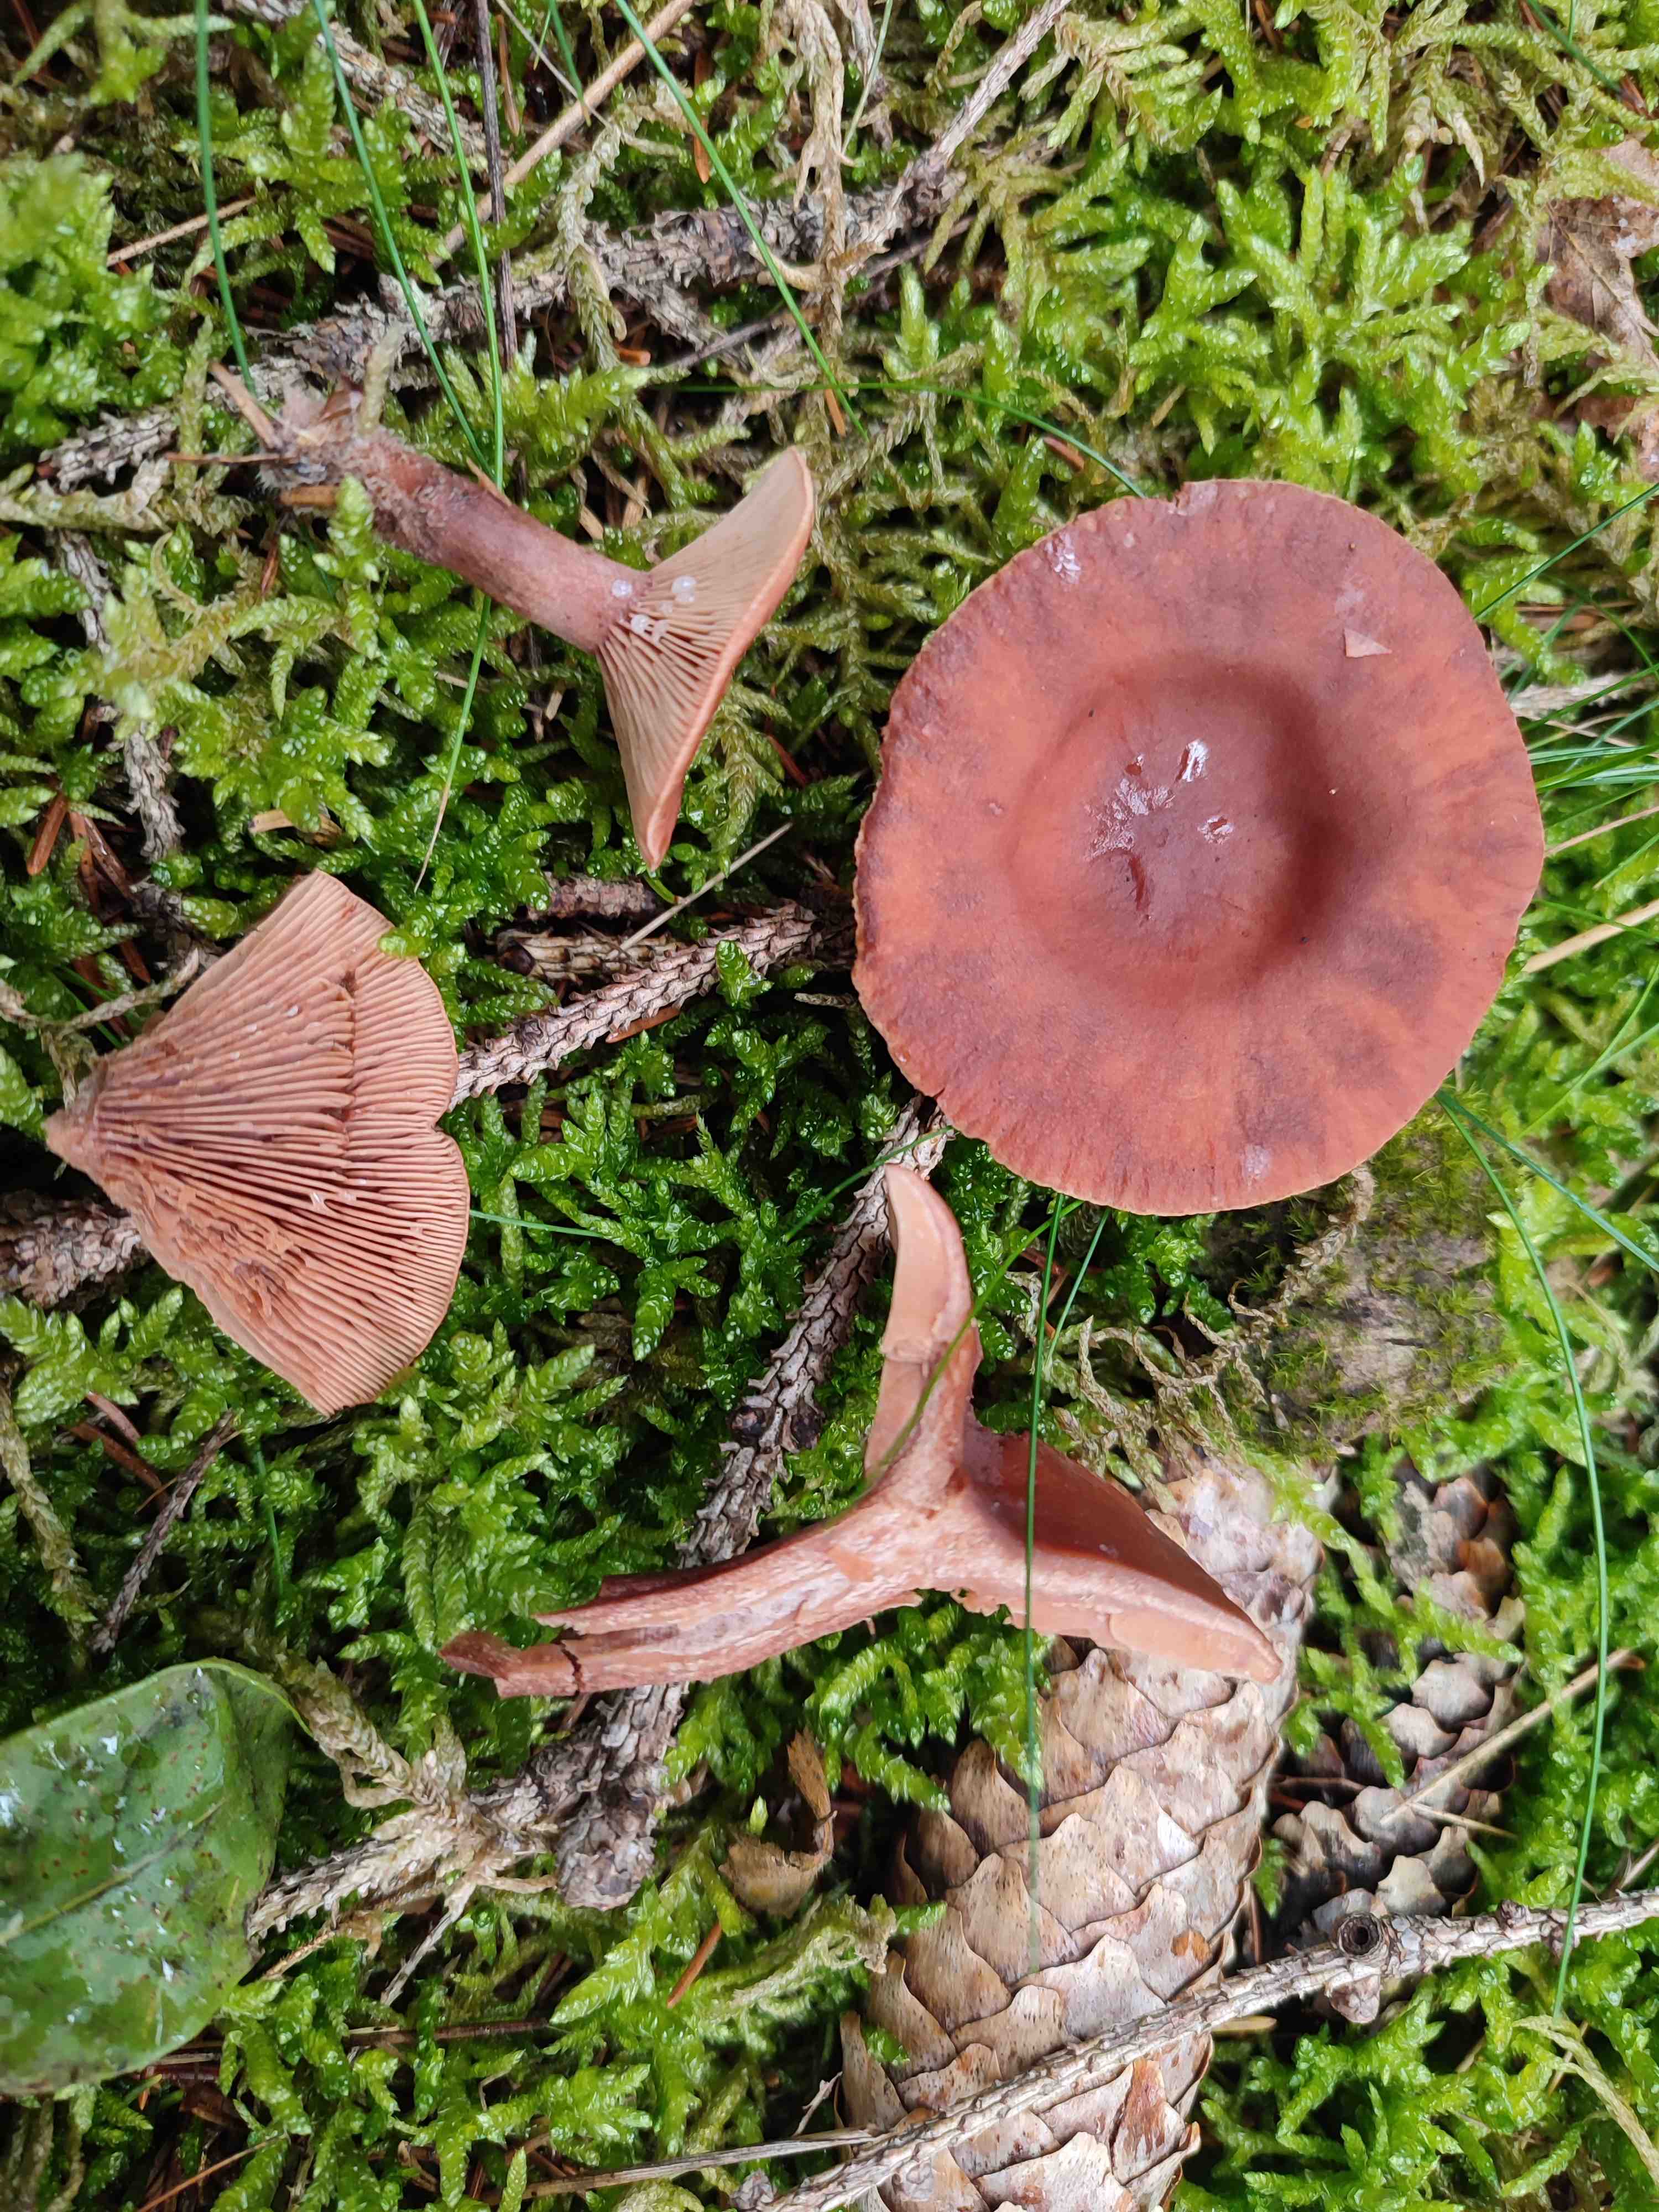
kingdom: Fungi
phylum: Basidiomycota
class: Agaricomycetes
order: Russulales
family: Russulaceae
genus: Lactarius
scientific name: Lactarius camphoratus
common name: kamfer-mælkehat
